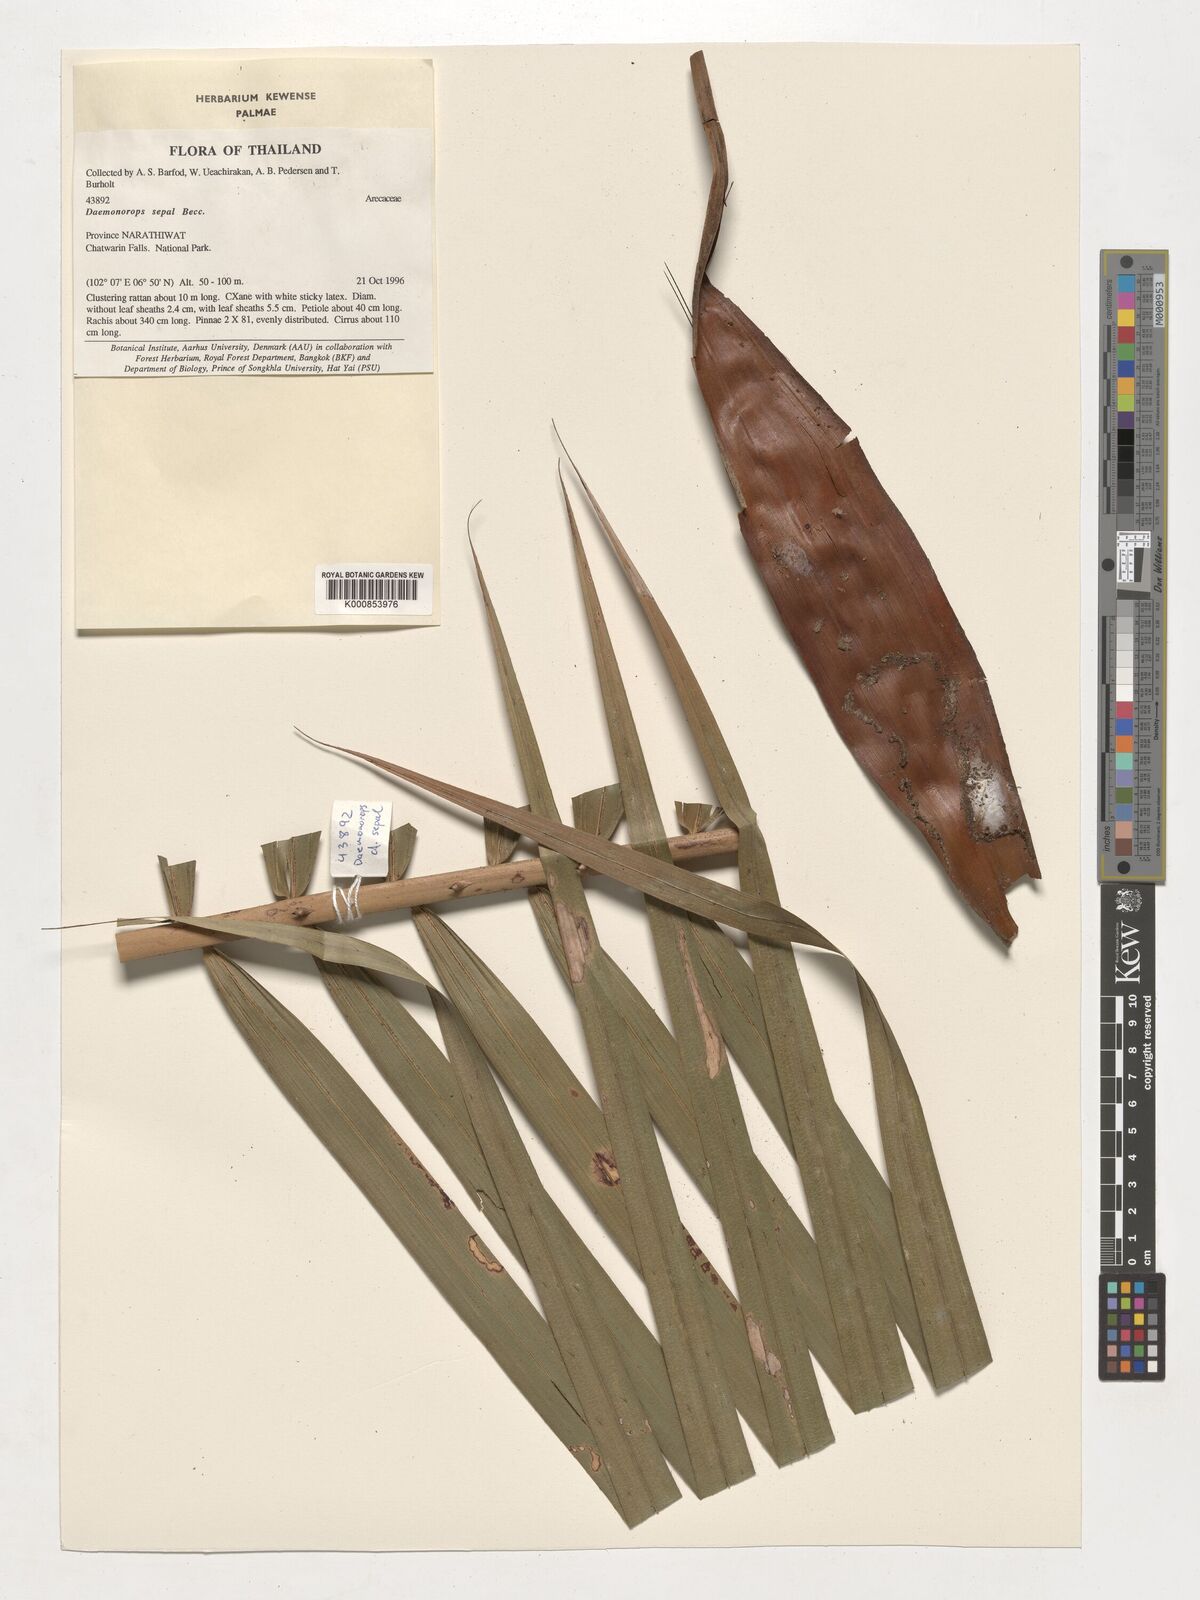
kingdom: Plantae
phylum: Tracheophyta
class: Liliopsida
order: Arecales
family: Arecaceae
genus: Calamus
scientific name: Calamus melanochaetes
